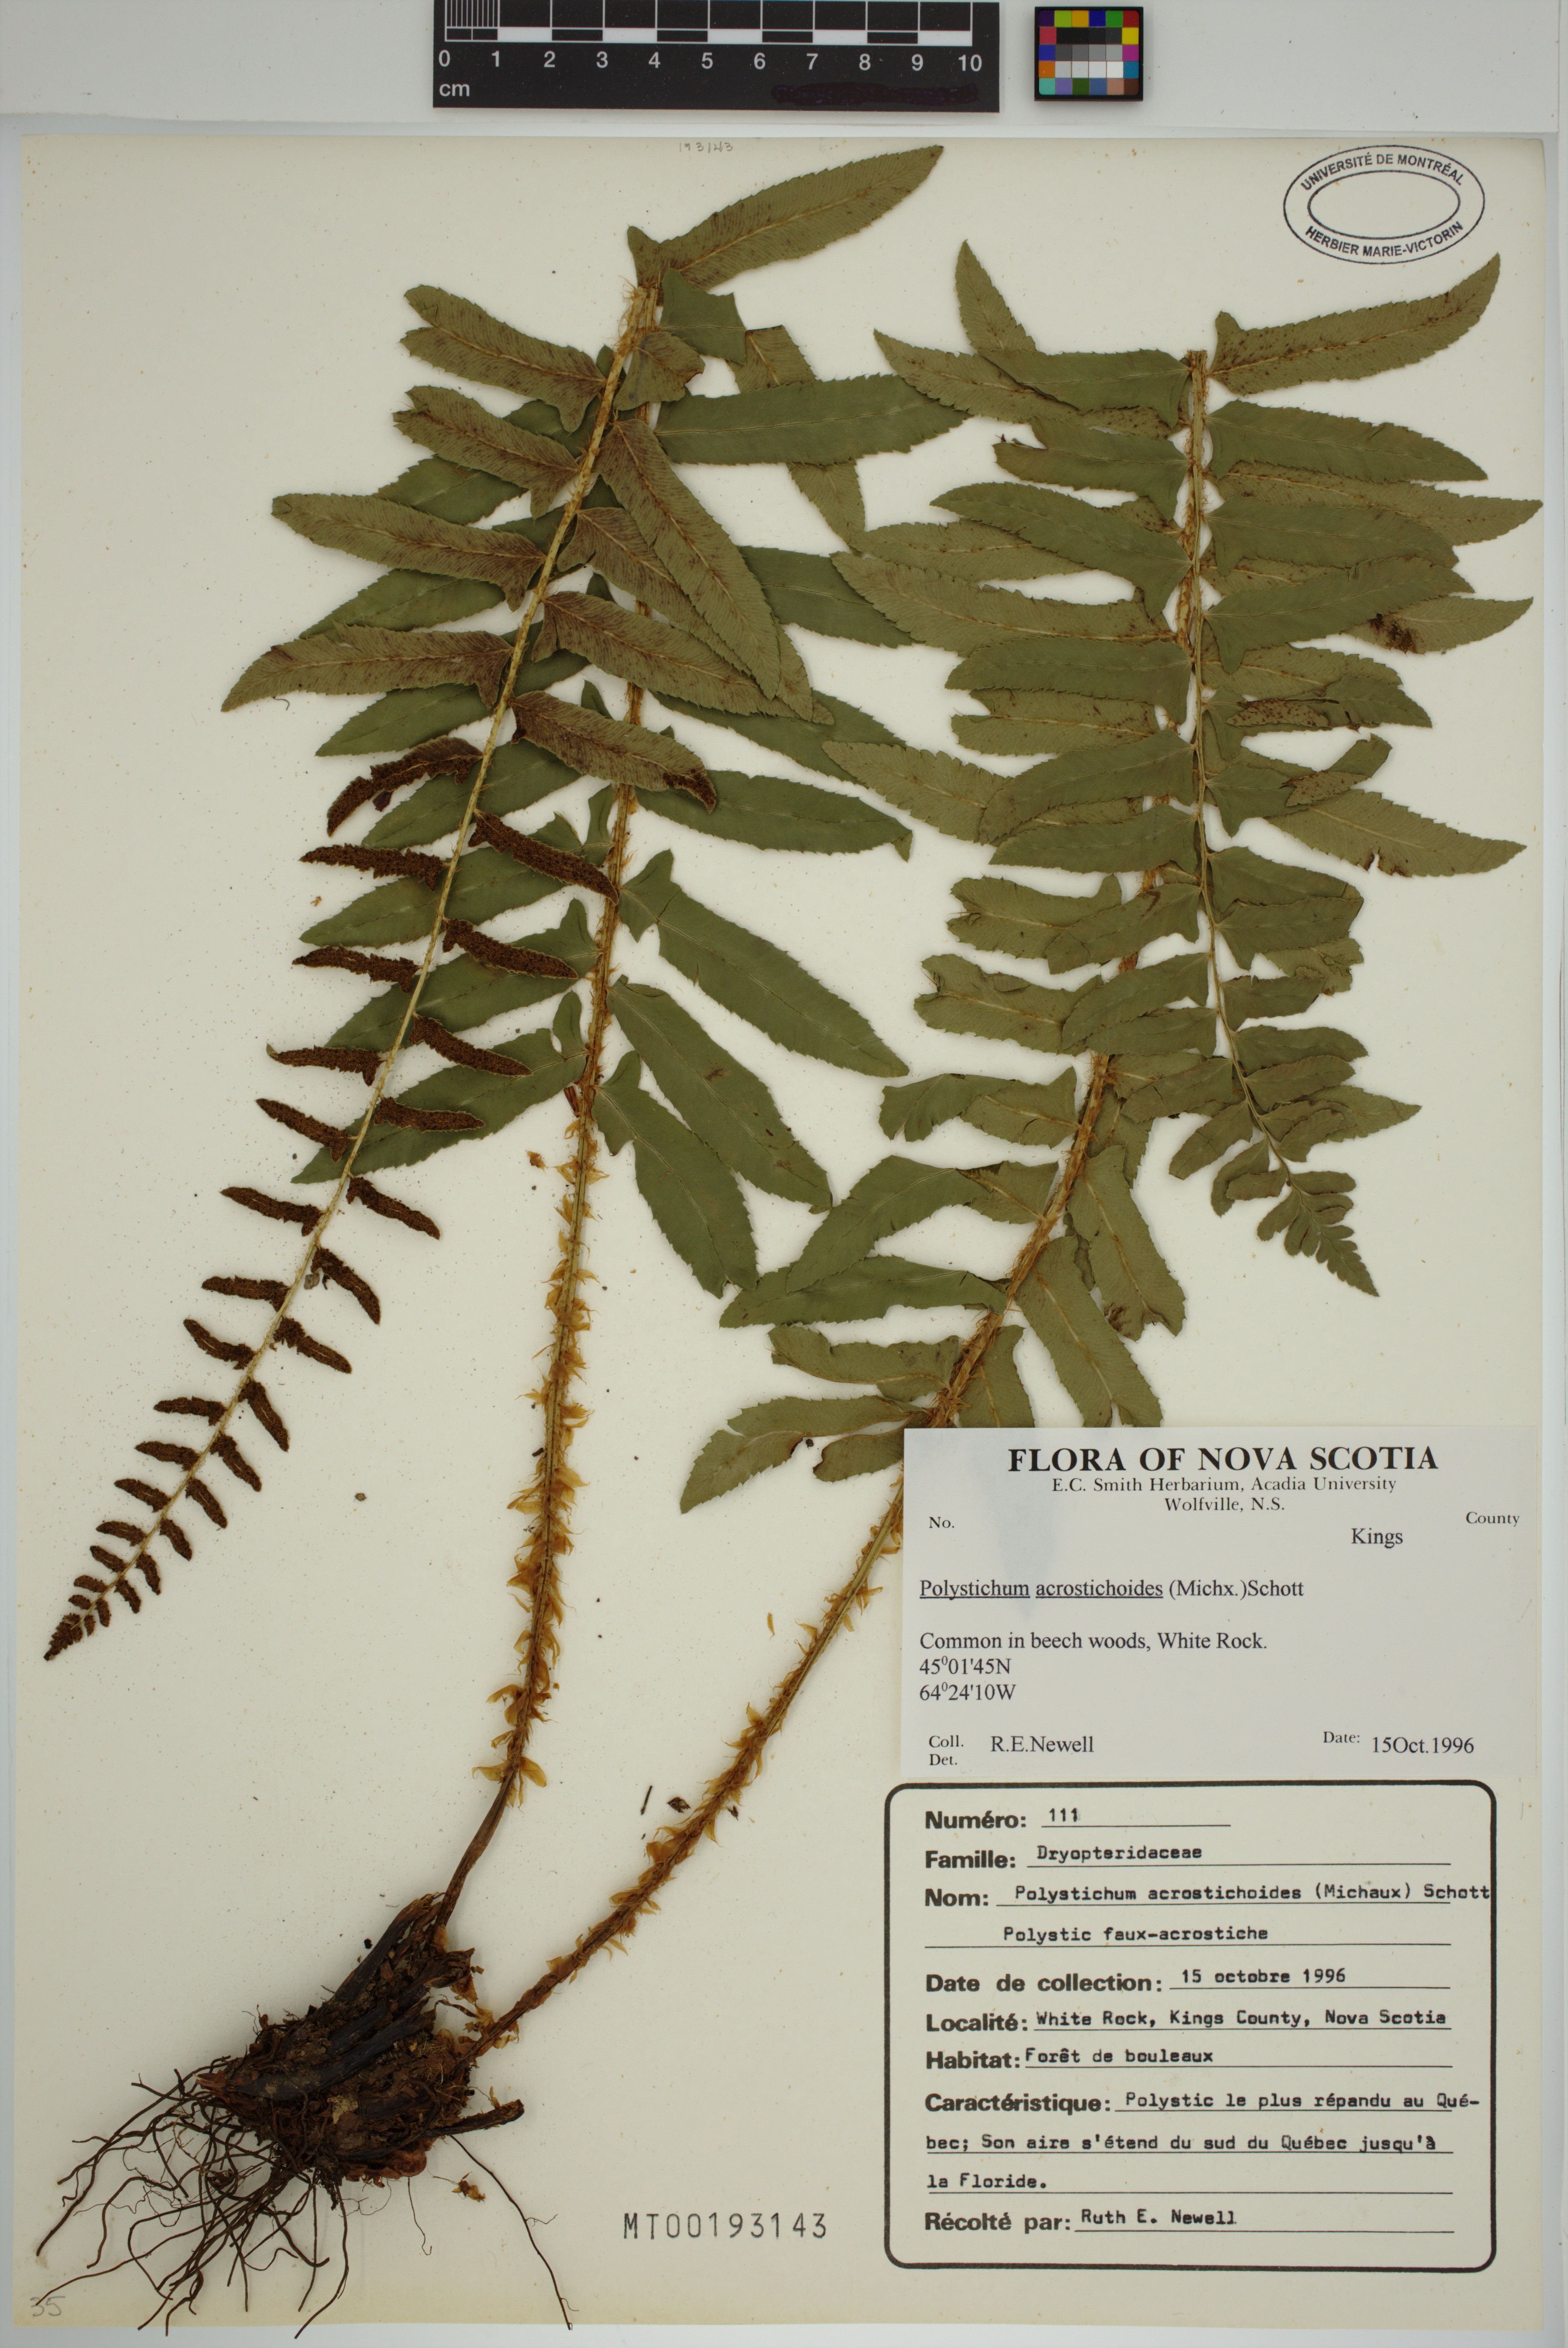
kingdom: Plantae
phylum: Tracheophyta
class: Polypodiopsida
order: Polypodiales
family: Dryopteridaceae
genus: Polystichum
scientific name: Polystichum acrostichoides
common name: Christmas fern
